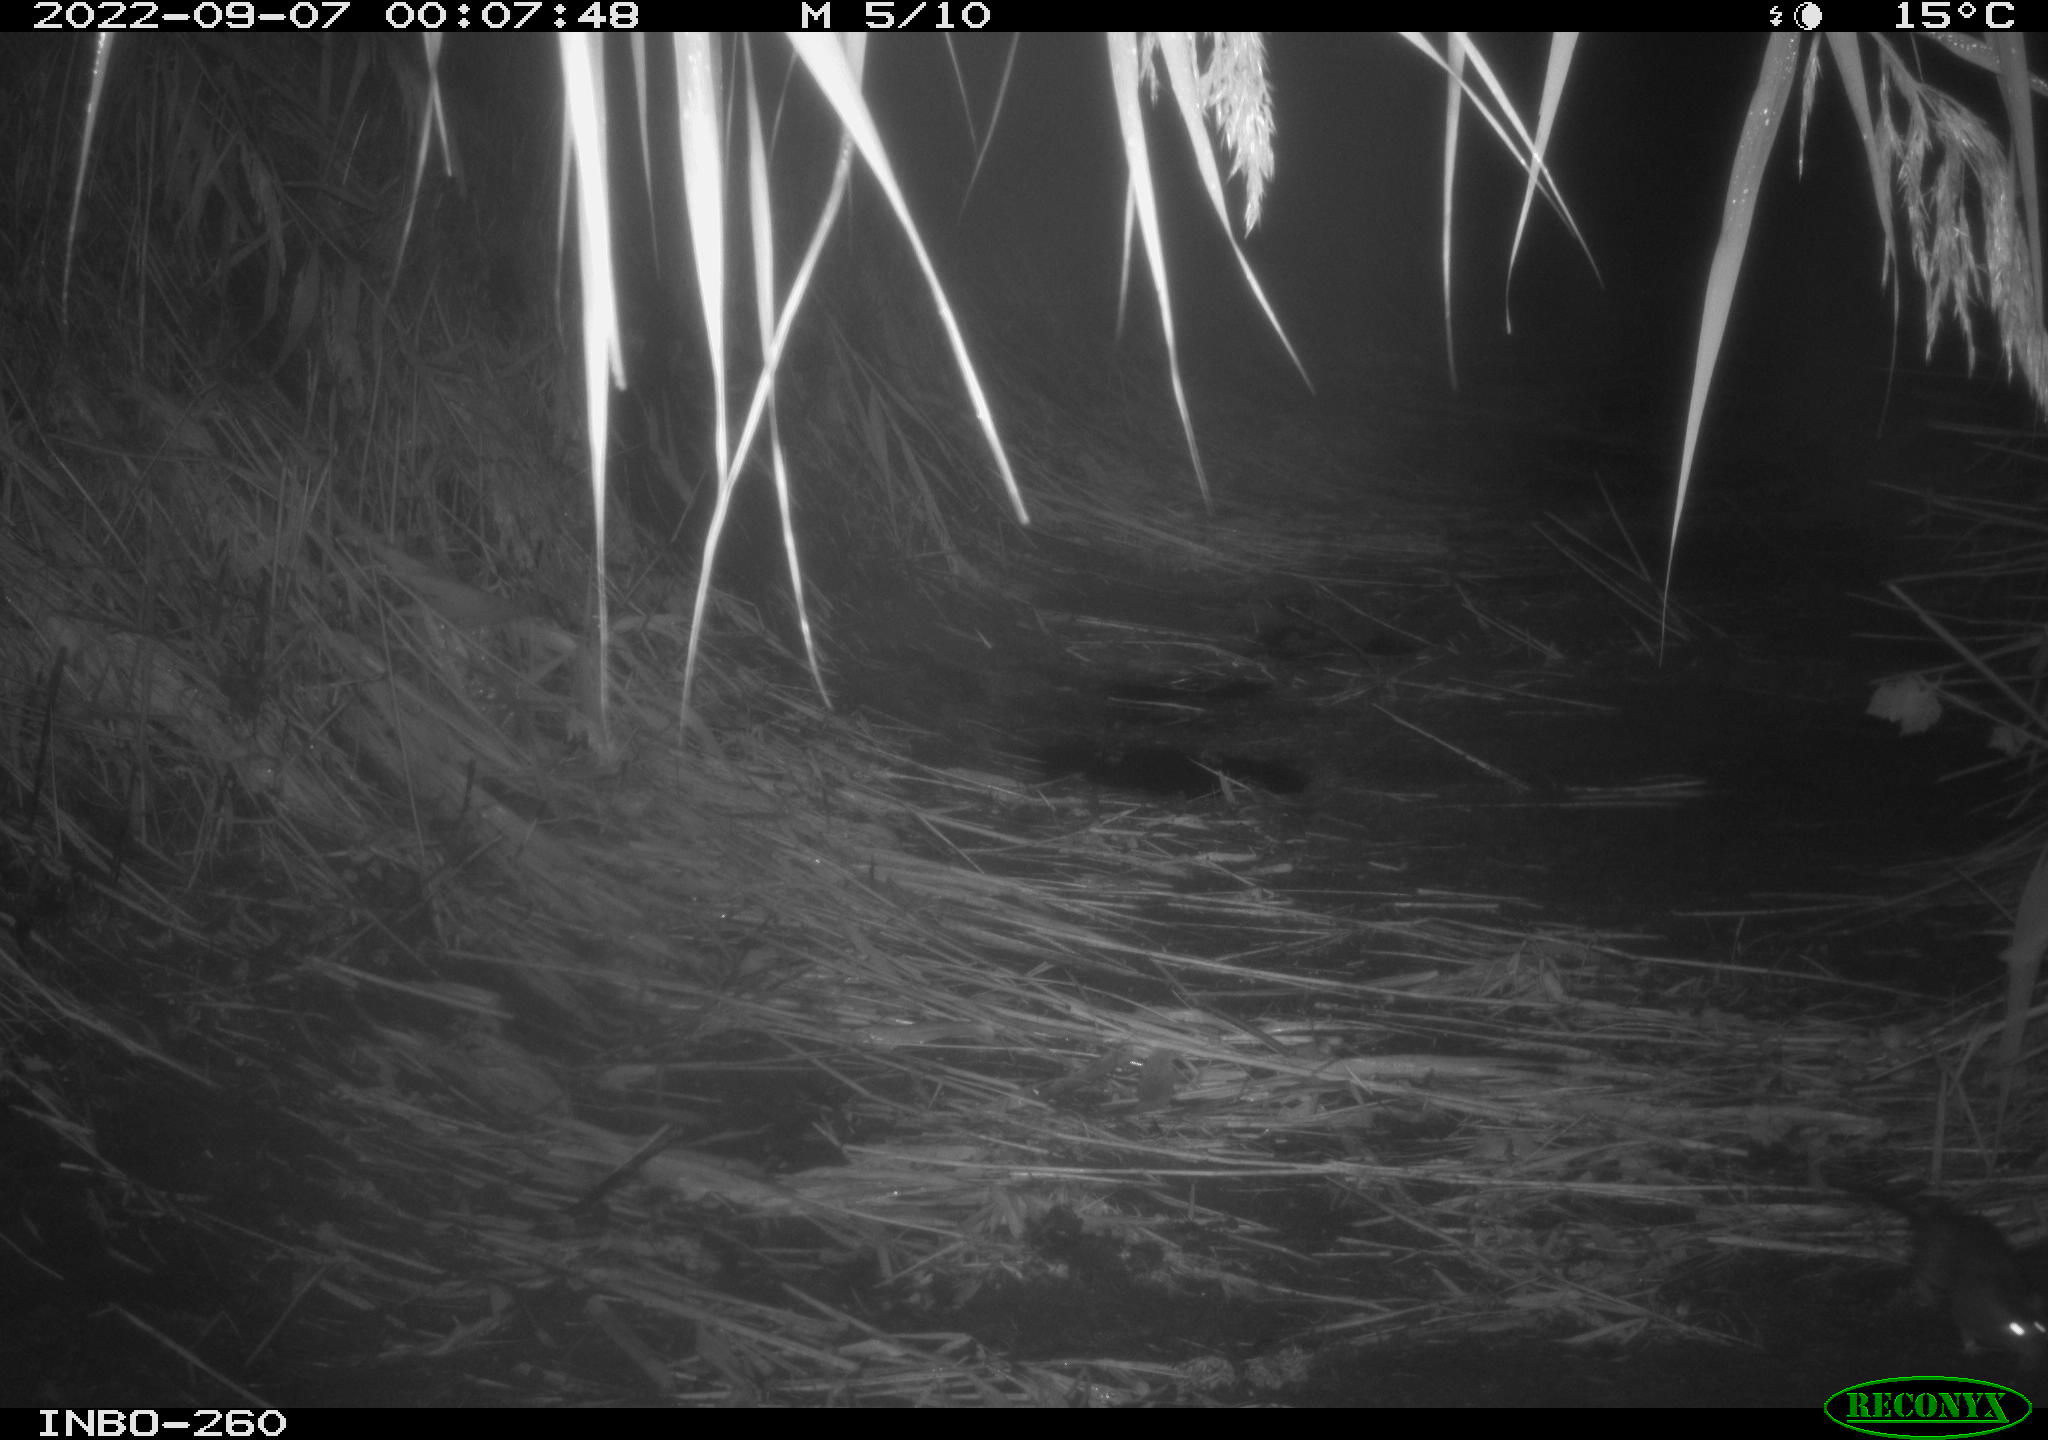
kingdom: Animalia
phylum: Chordata
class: Mammalia
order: Rodentia
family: Muridae
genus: Rattus
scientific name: Rattus norvegicus
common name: Brown rat
